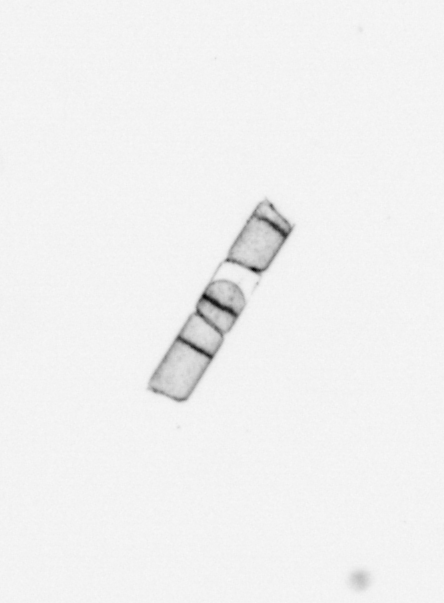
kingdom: Chromista
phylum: Ochrophyta
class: Bacillariophyceae
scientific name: Bacillariophyceae
